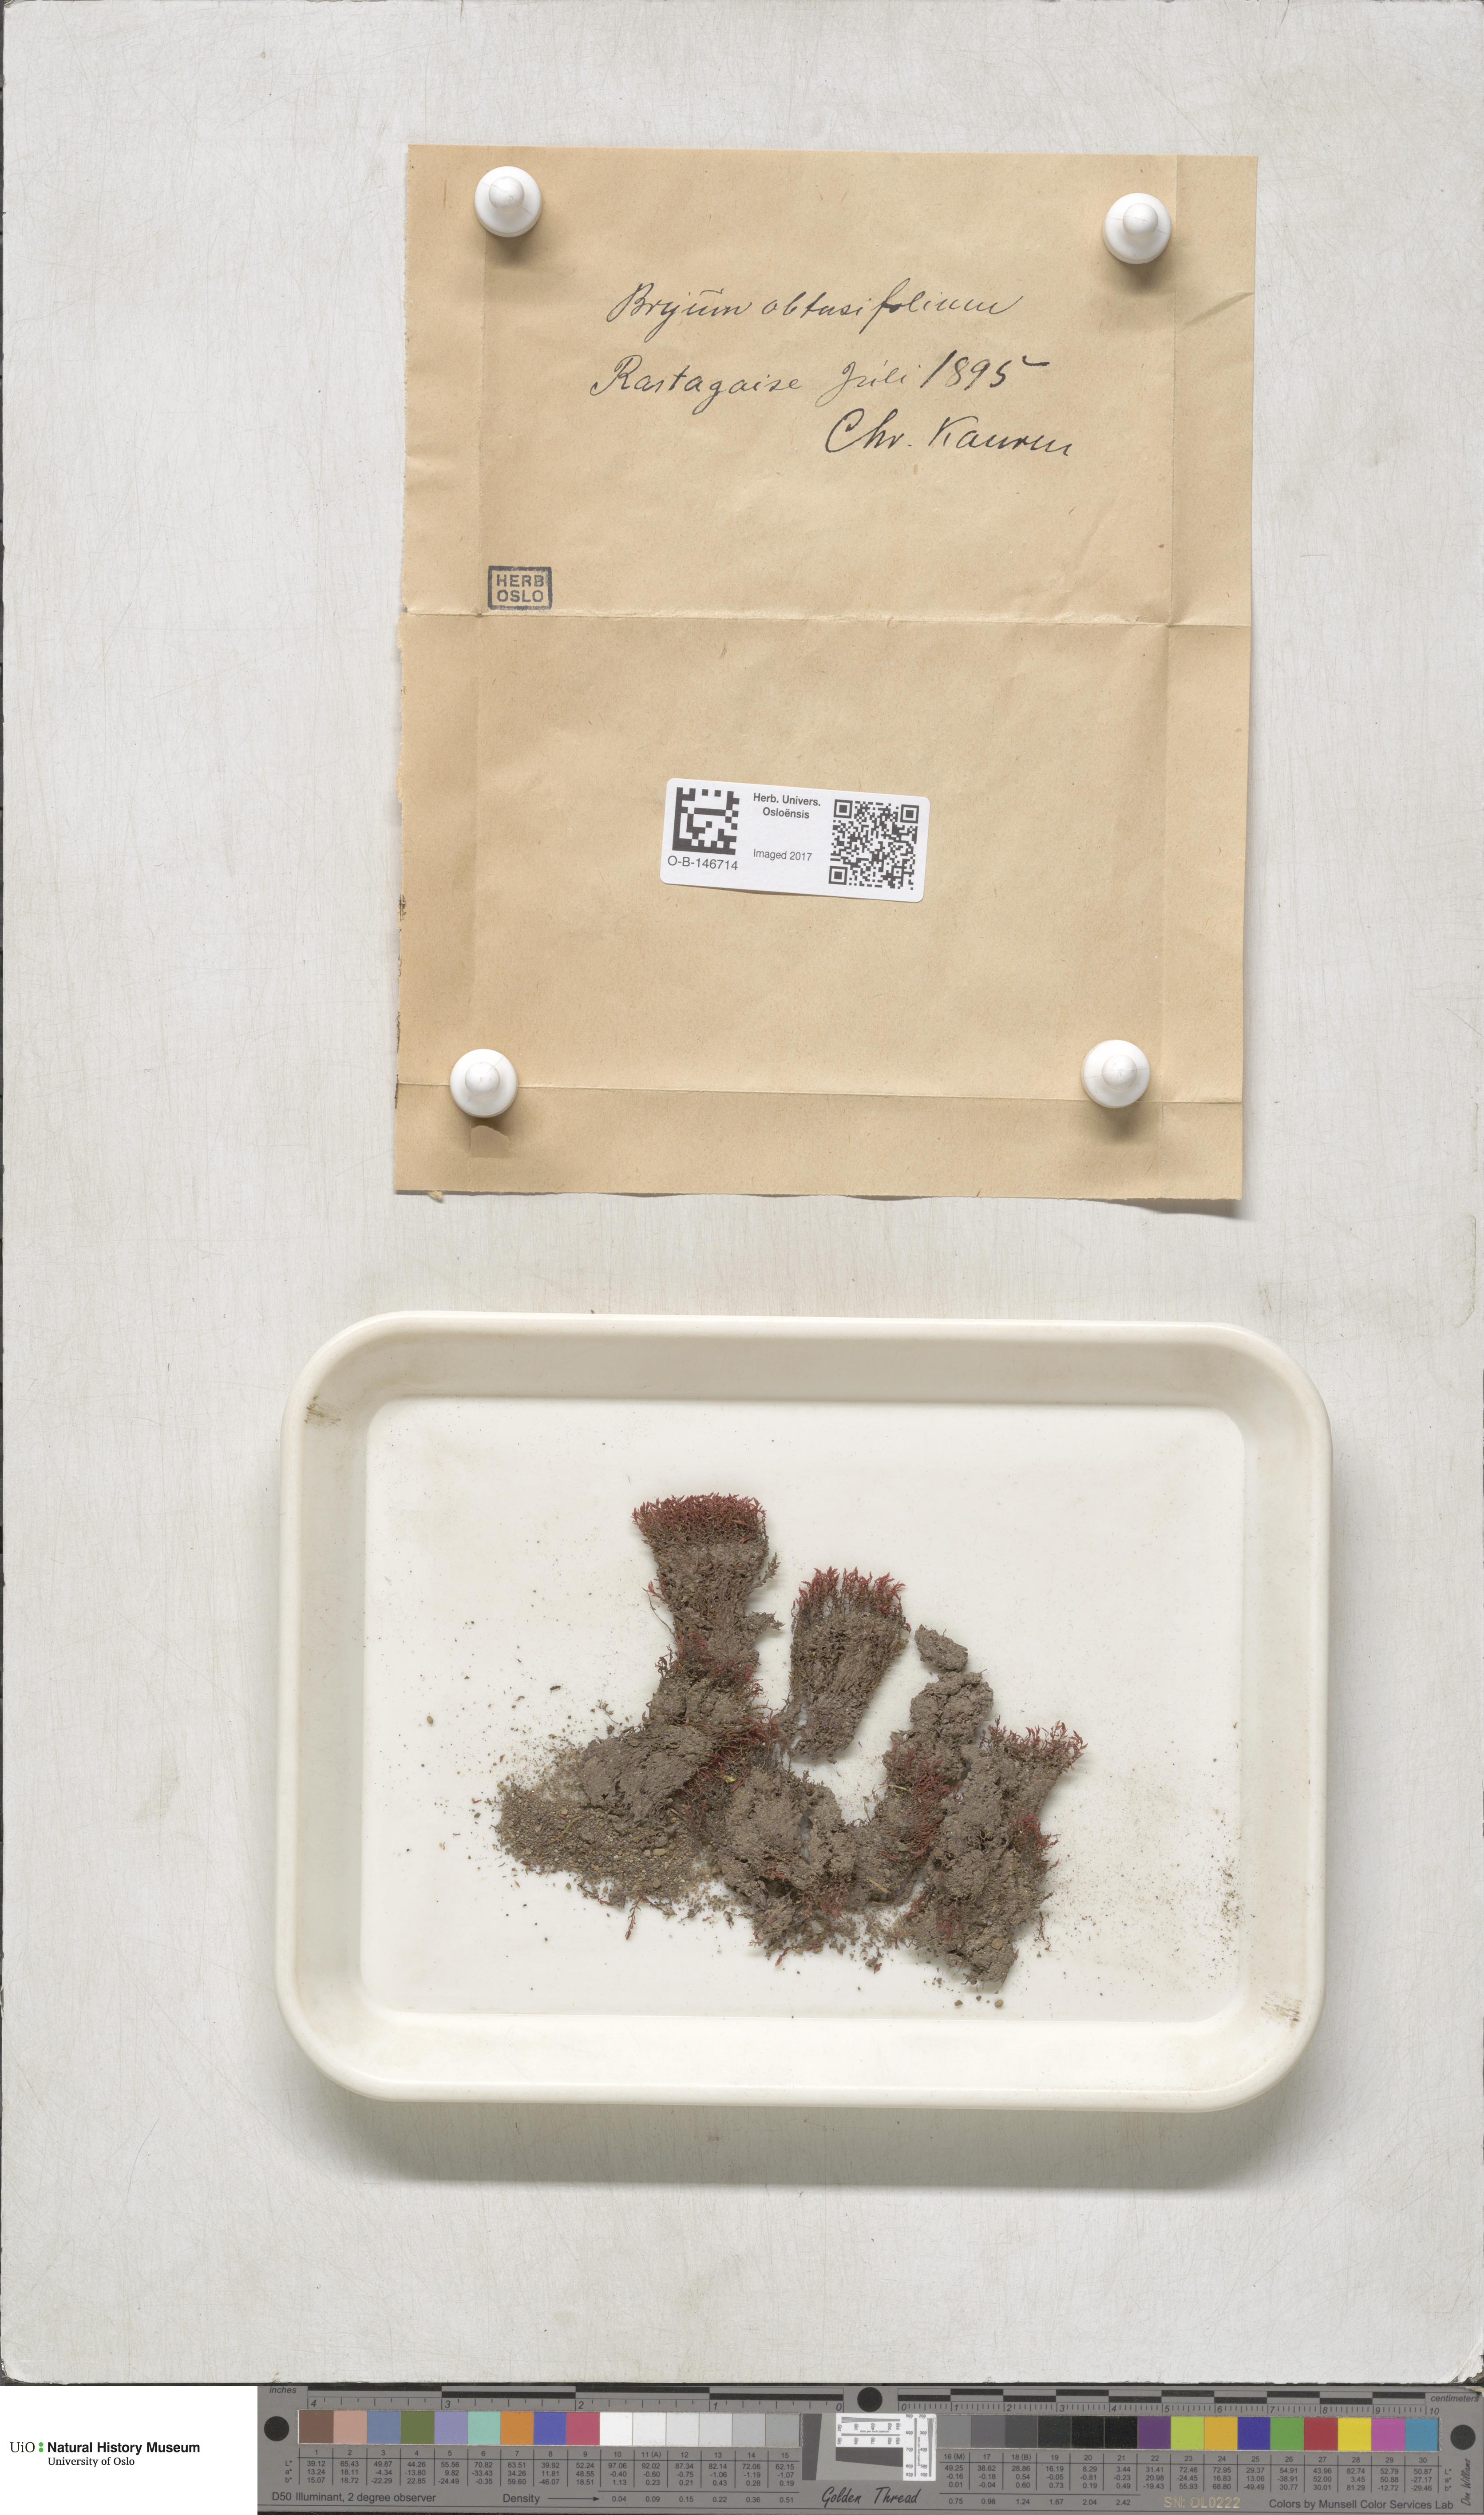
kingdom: Plantae
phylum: Bryophyta
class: Bryopsida
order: Bryales
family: Mniaceae
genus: Pohlia
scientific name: Pohlia obtusifolia
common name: Blunt nodding moss
